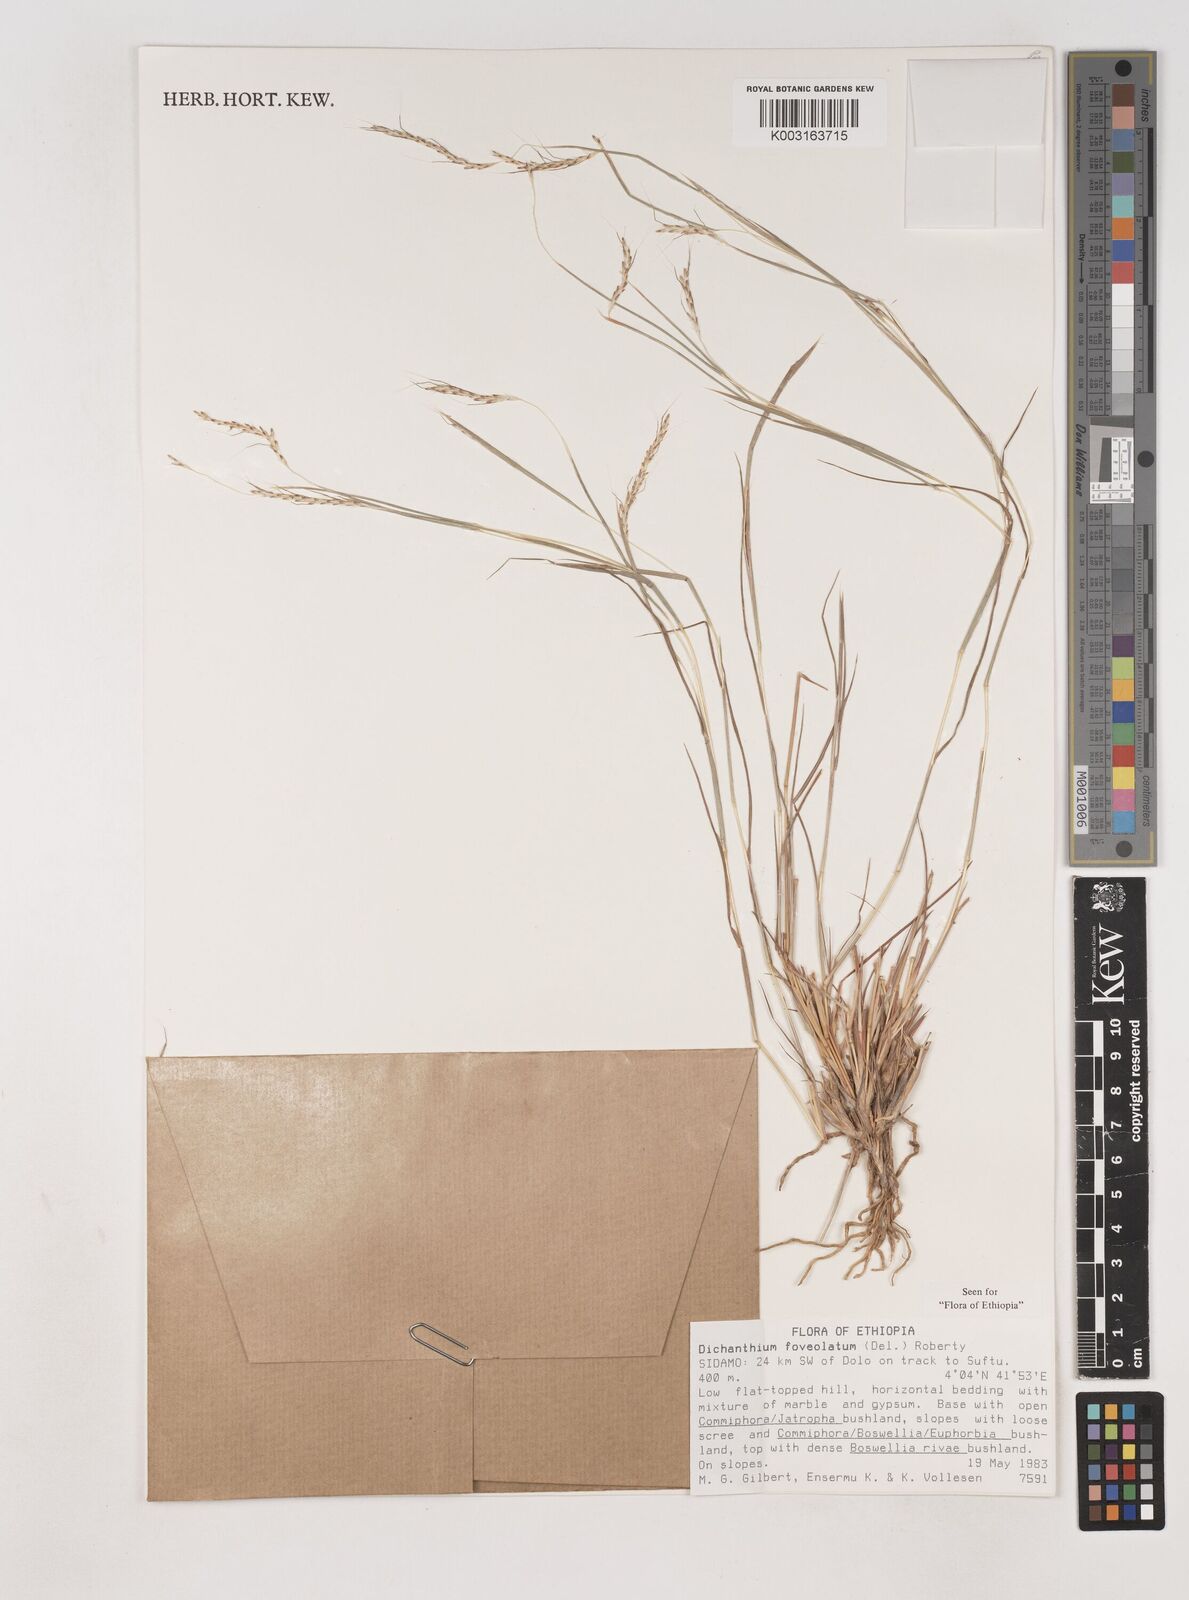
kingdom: Plantae
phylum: Tracheophyta
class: Liliopsida
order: Poales
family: Poaceae
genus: Dichanthium
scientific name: Dichanthium foveolatum
